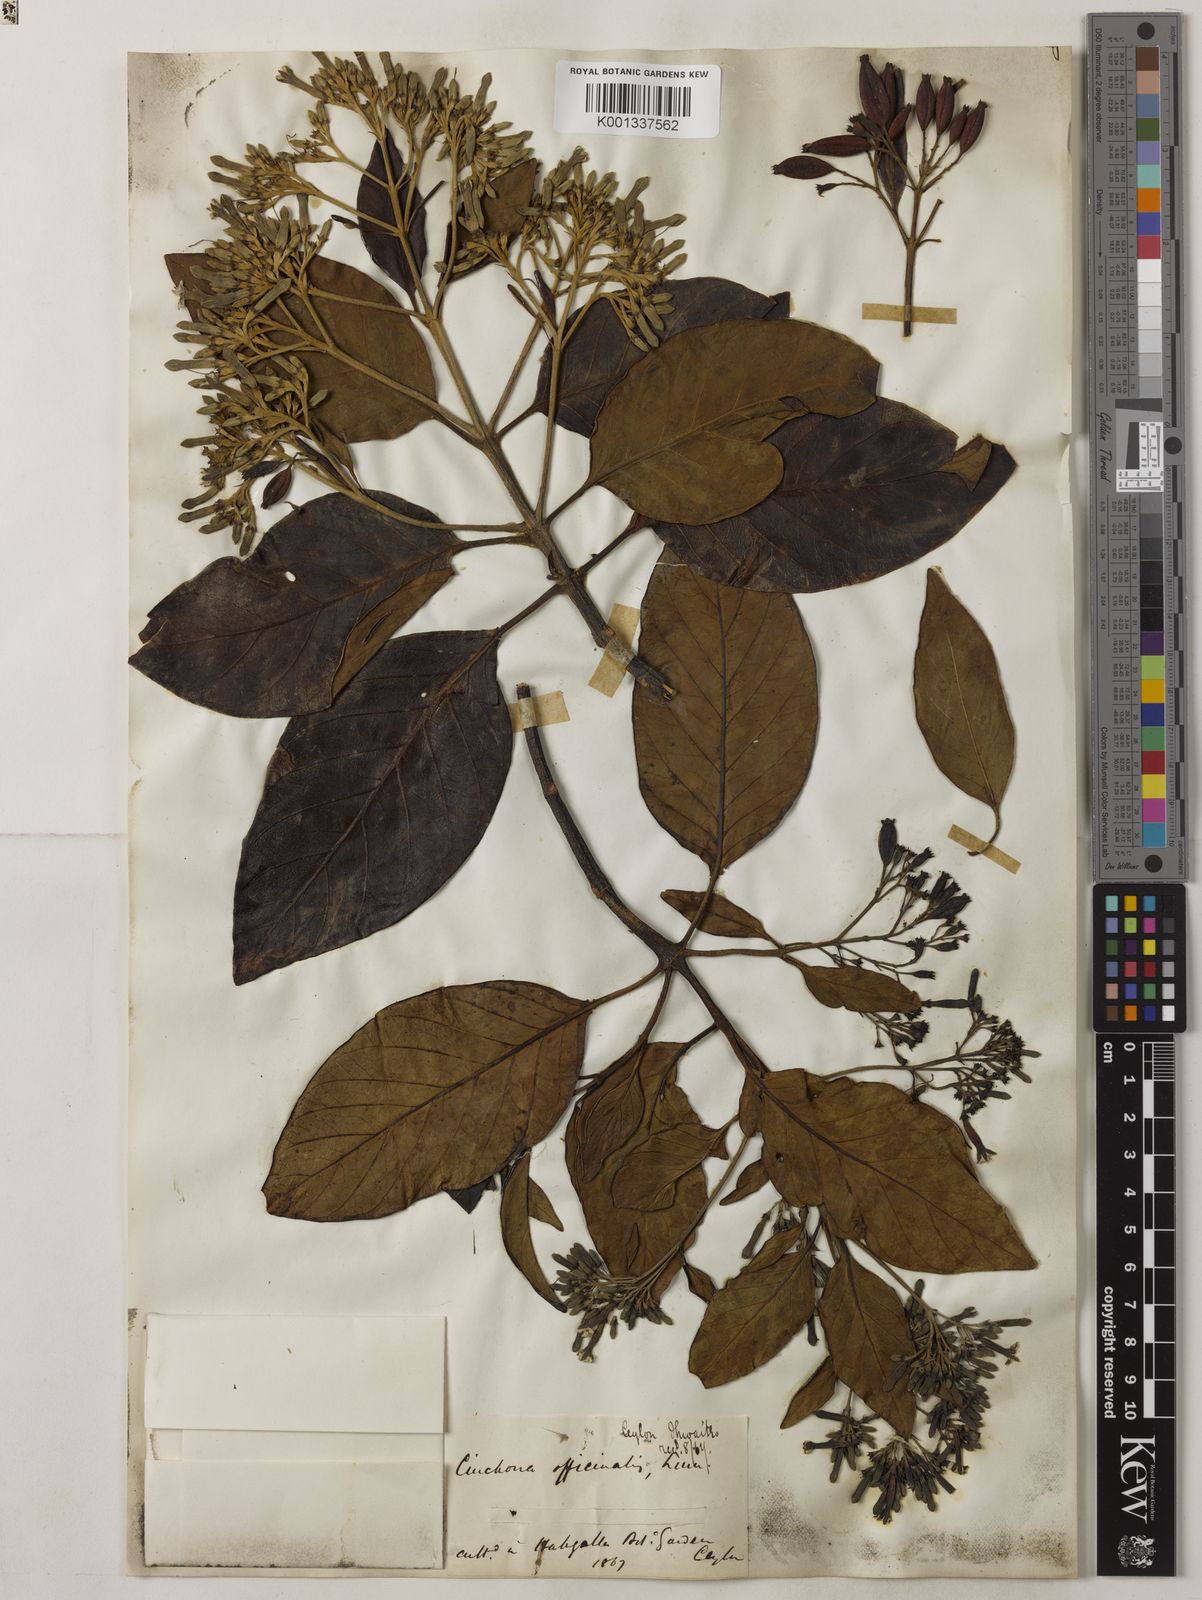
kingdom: Plantae
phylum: Tracheophyta
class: Magnoliopsida
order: Gentianales
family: Rubiaceae
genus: Cinchona
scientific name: Cinchona officinalis
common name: Lojabark
